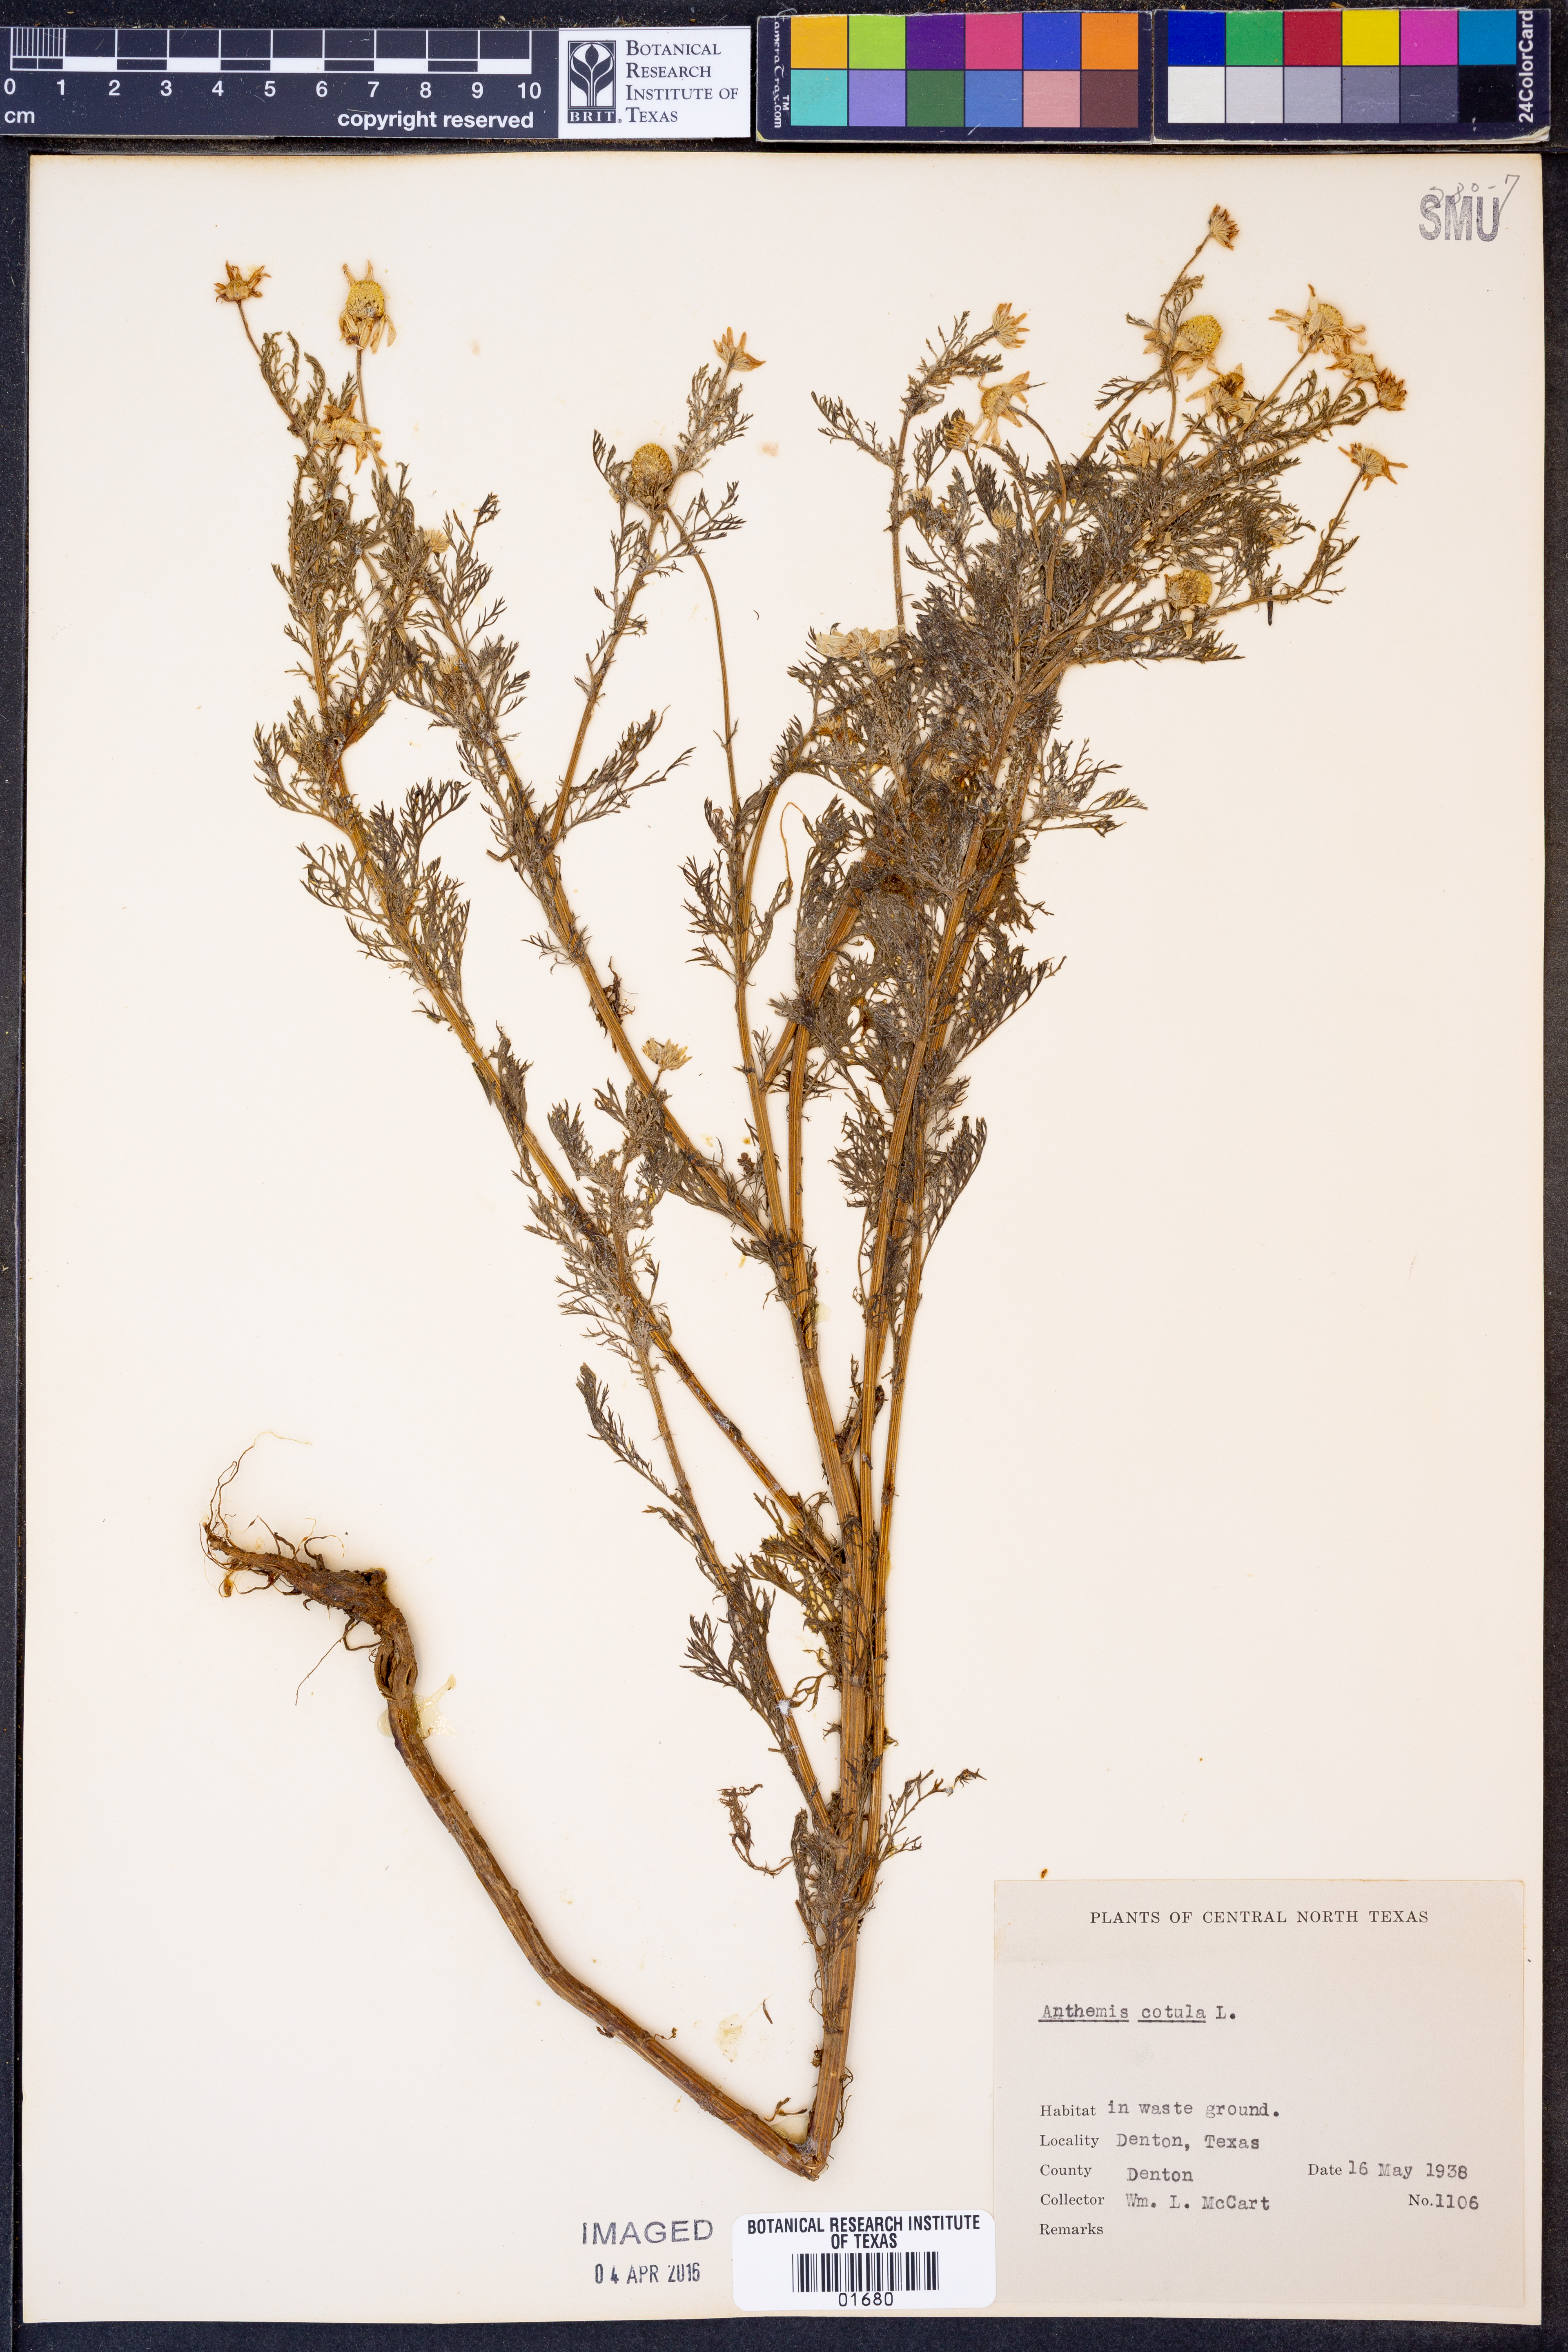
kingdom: Plantae
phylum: Tracheophyta
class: Magnoliopsida
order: Asterales
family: Asteraceae
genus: Anthemis
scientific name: Anthemis cotula
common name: Stinking chamomile
